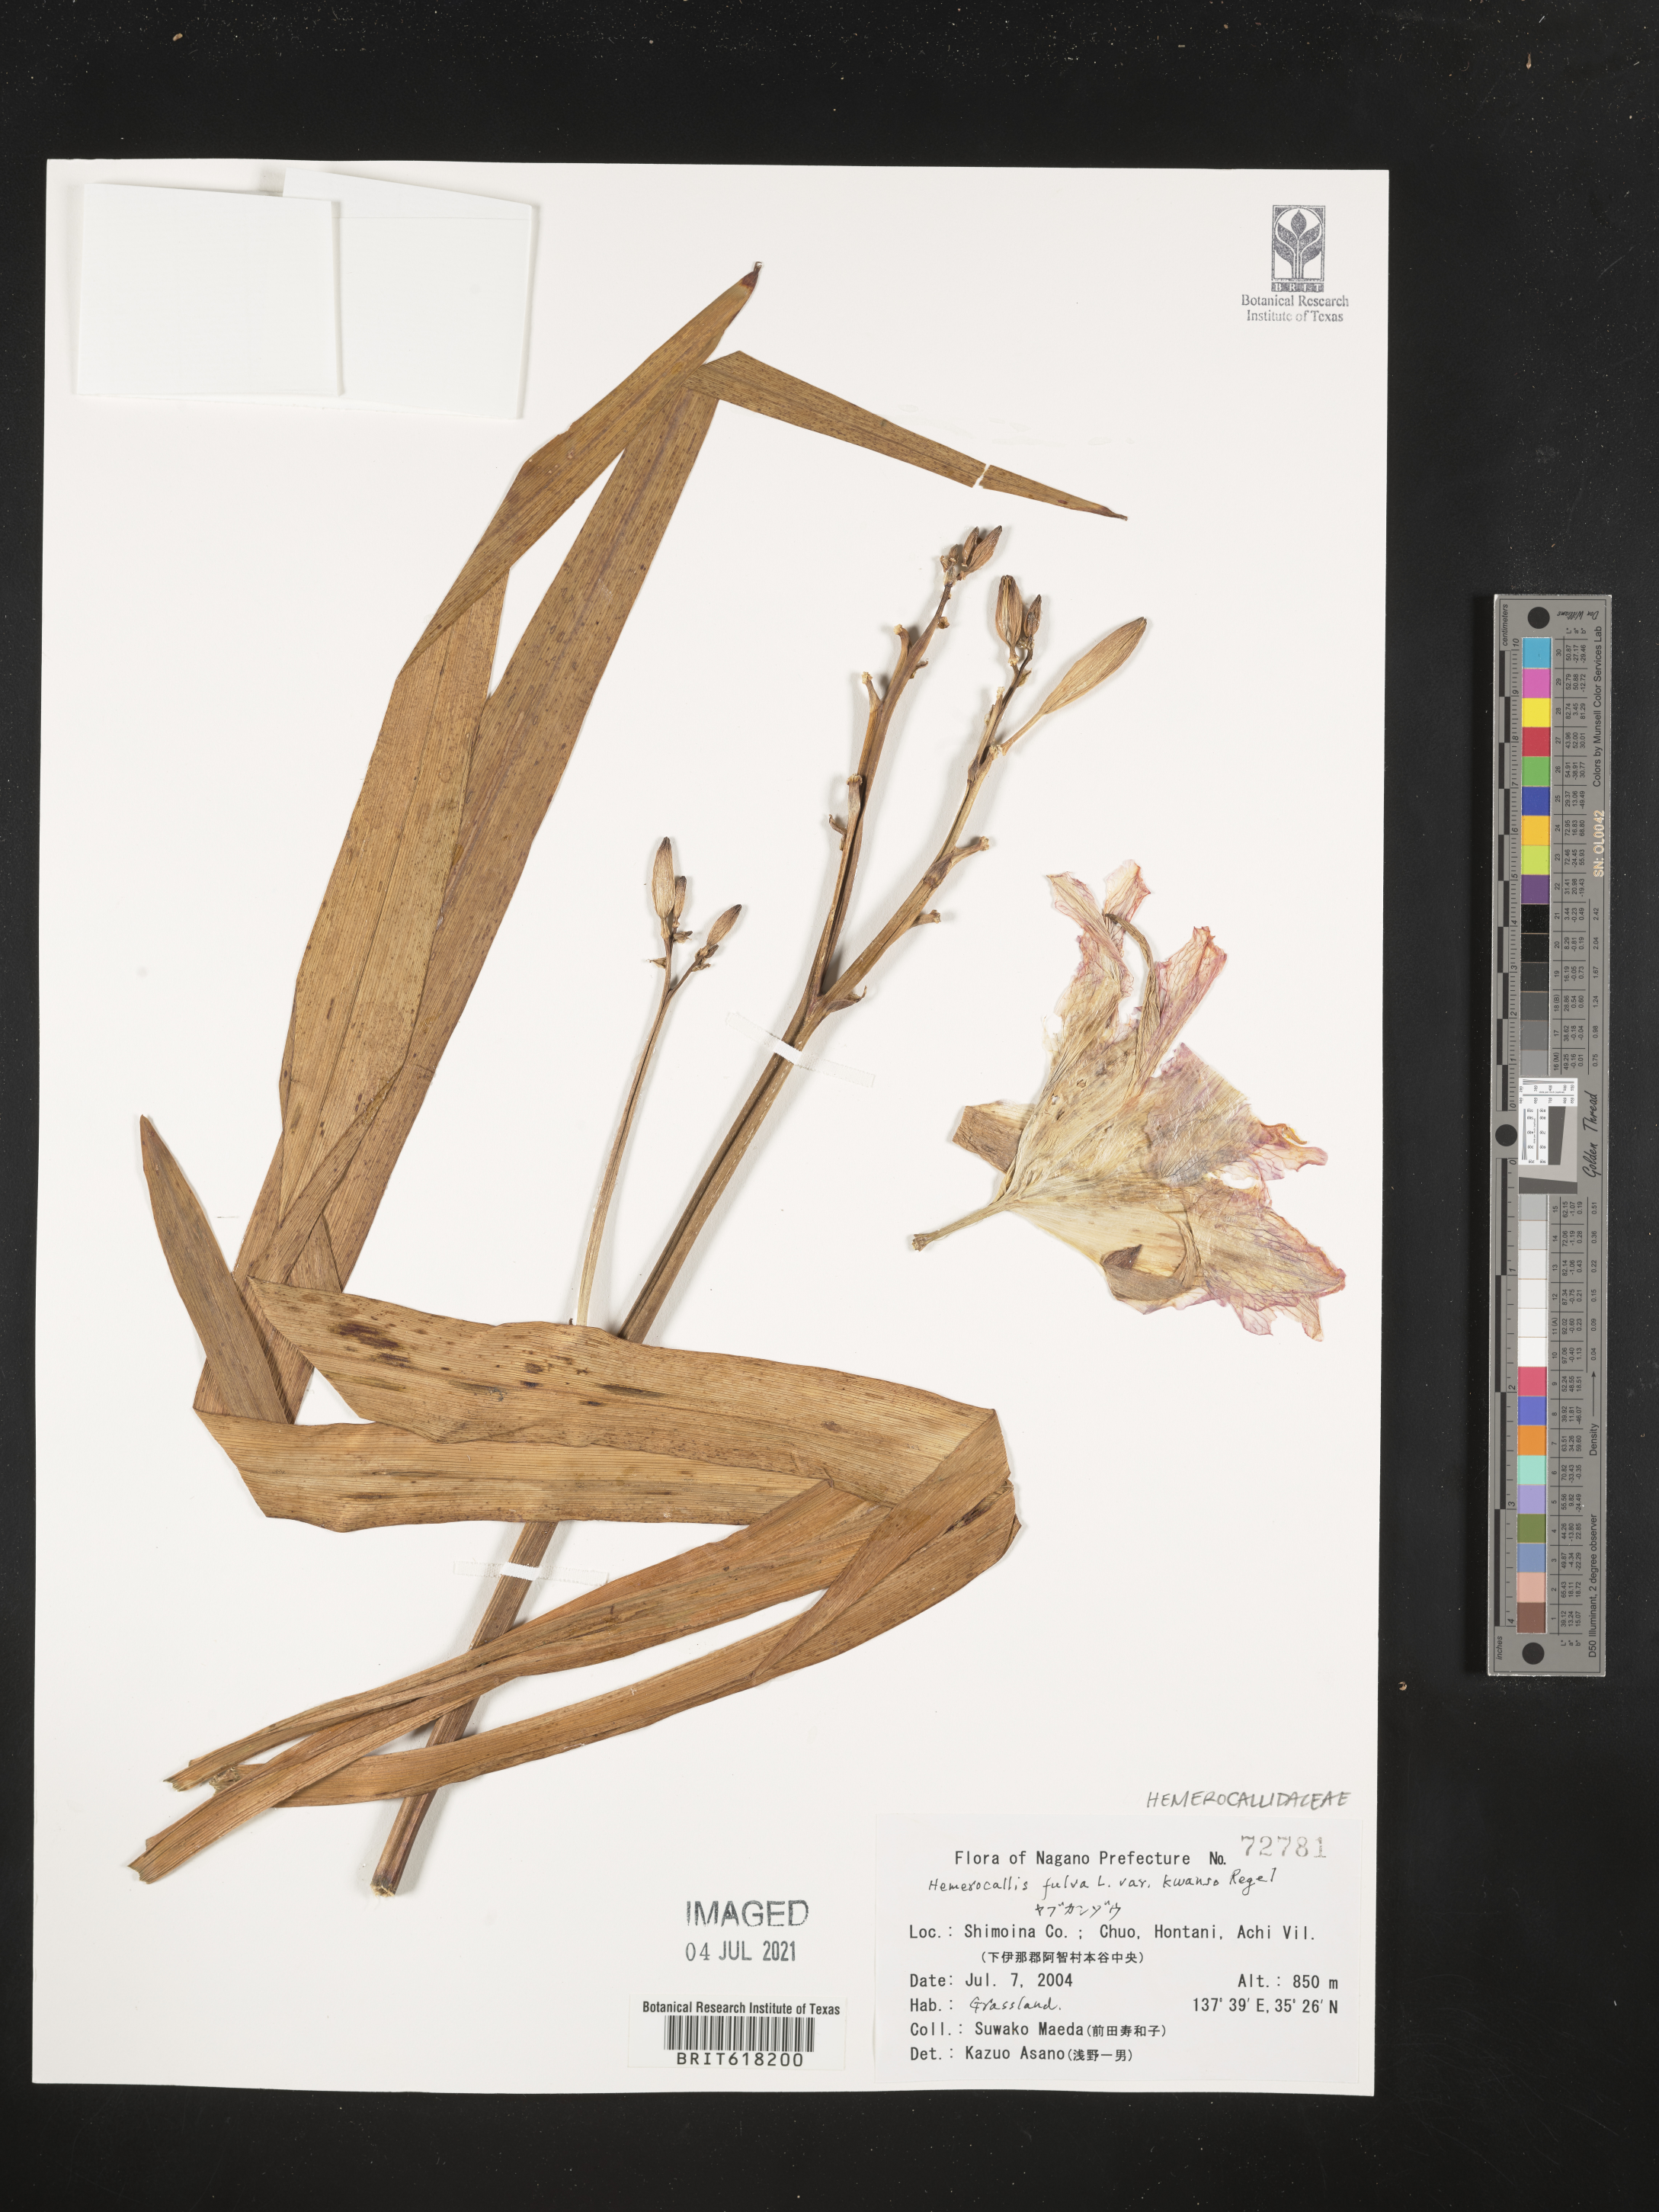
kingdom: Plantae
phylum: Tracheophyta
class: Liliopsida
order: Asparagales
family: Asphodelaceae
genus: Hemerocallis
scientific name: Hemerocallis fulva
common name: Orange day-lily
